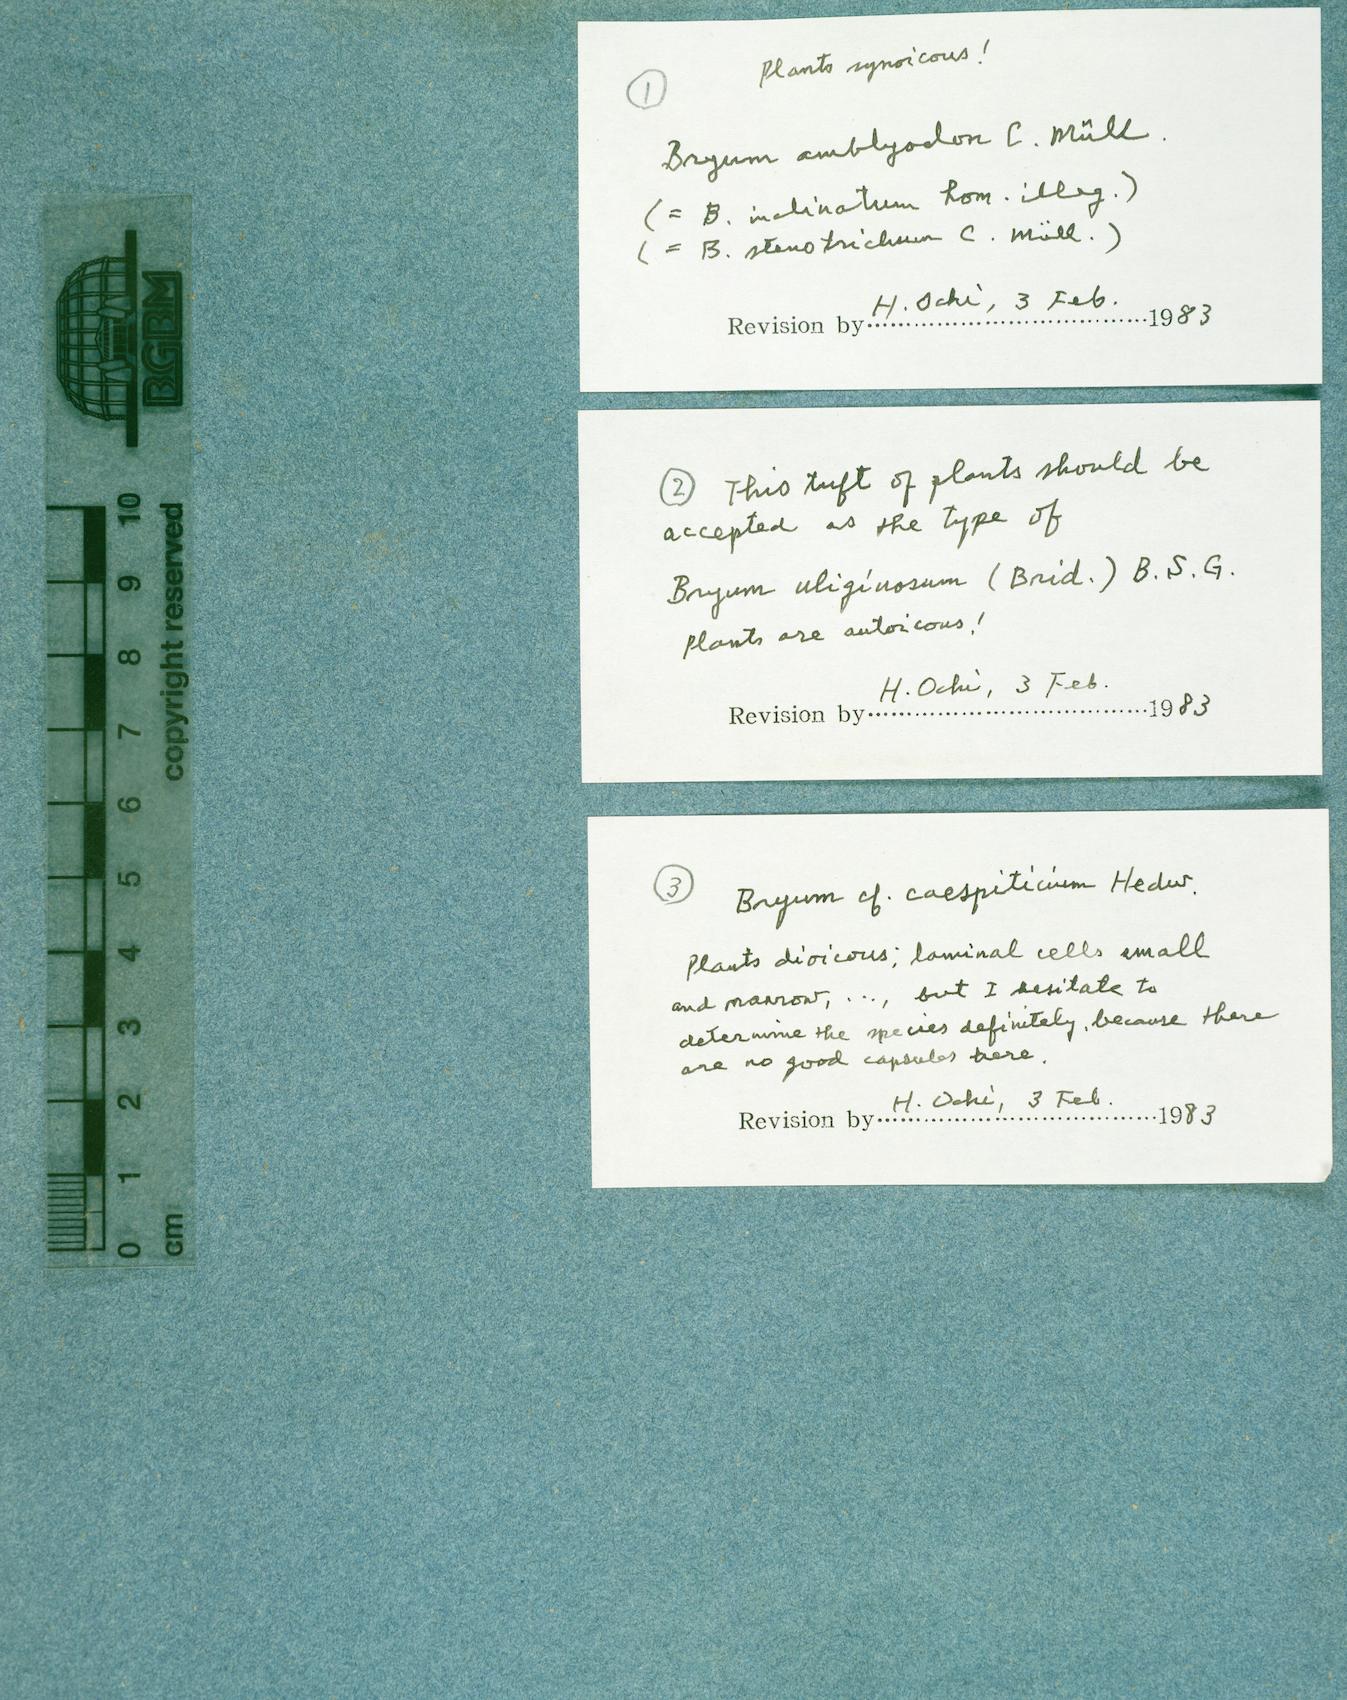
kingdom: Plantae
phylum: Bryophyta
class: Bryopsida
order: Bryales
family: Bryaceae
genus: Ptychostomum
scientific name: Ptychostomum cernuum
